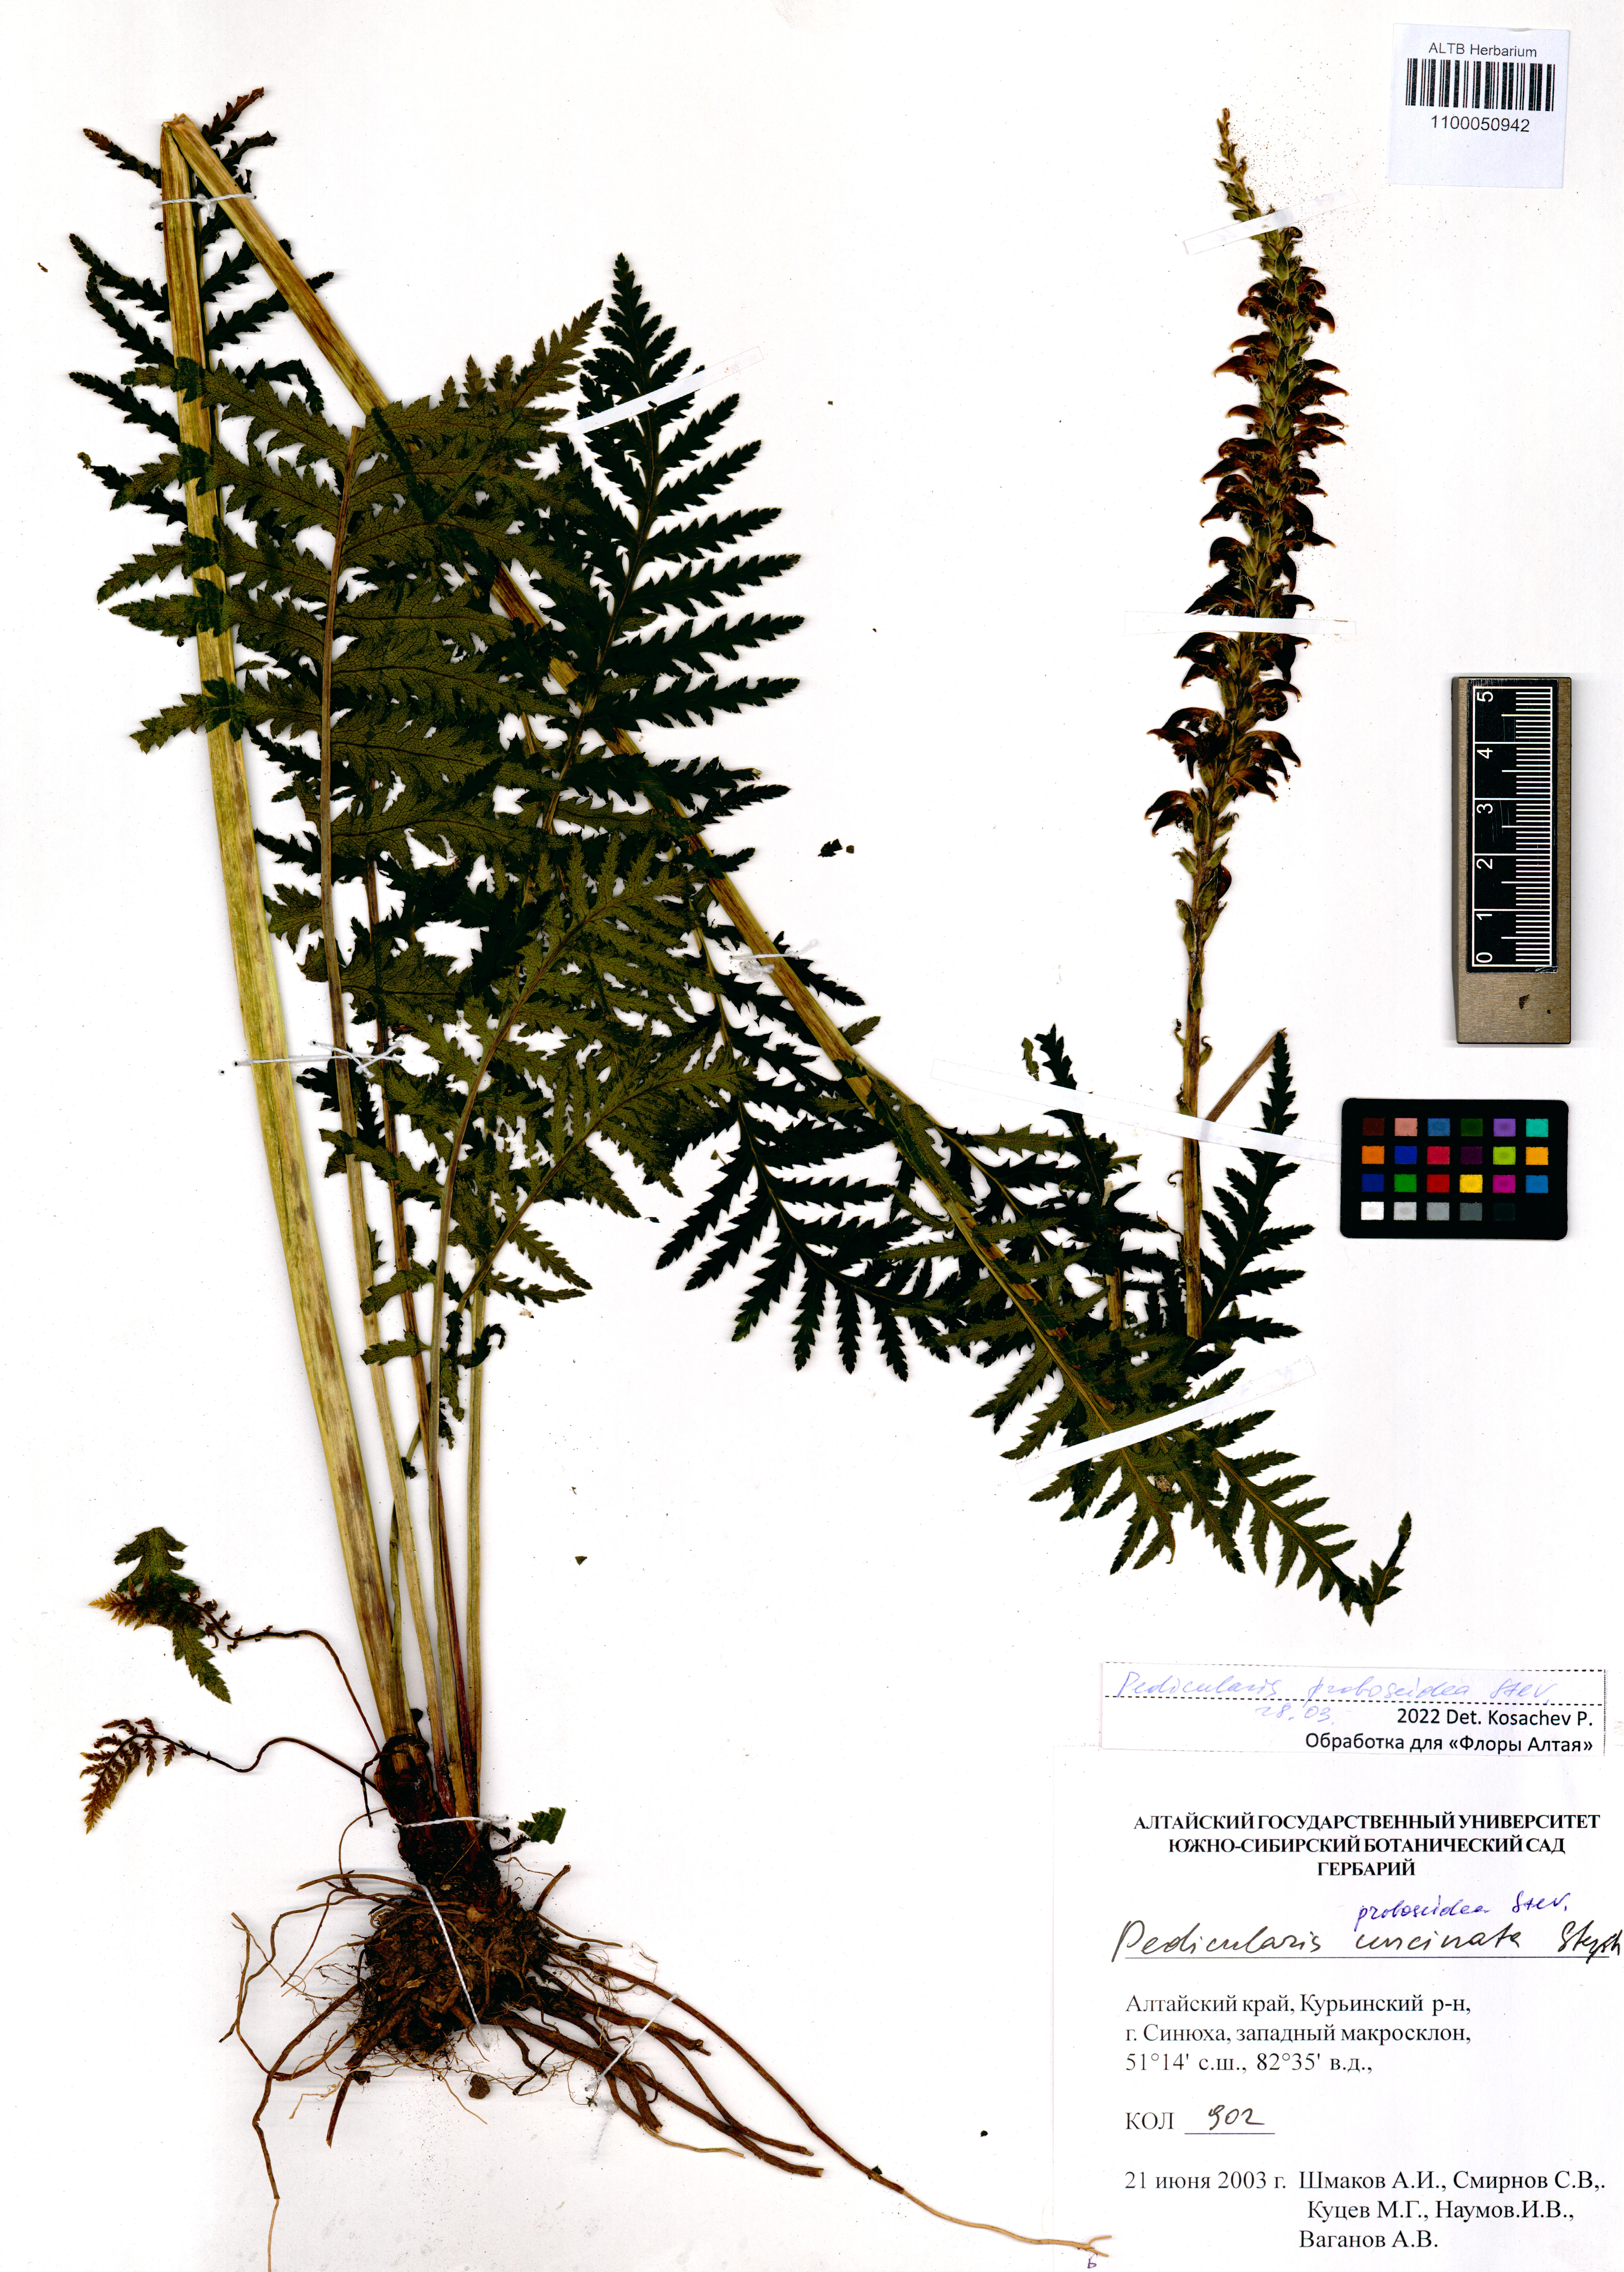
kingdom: Plantae
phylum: Tracheophyta
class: Magnoliopsida
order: Lamiales
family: Orobanchaceae
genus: Pedicularis
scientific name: Pedicularis proboscidea
